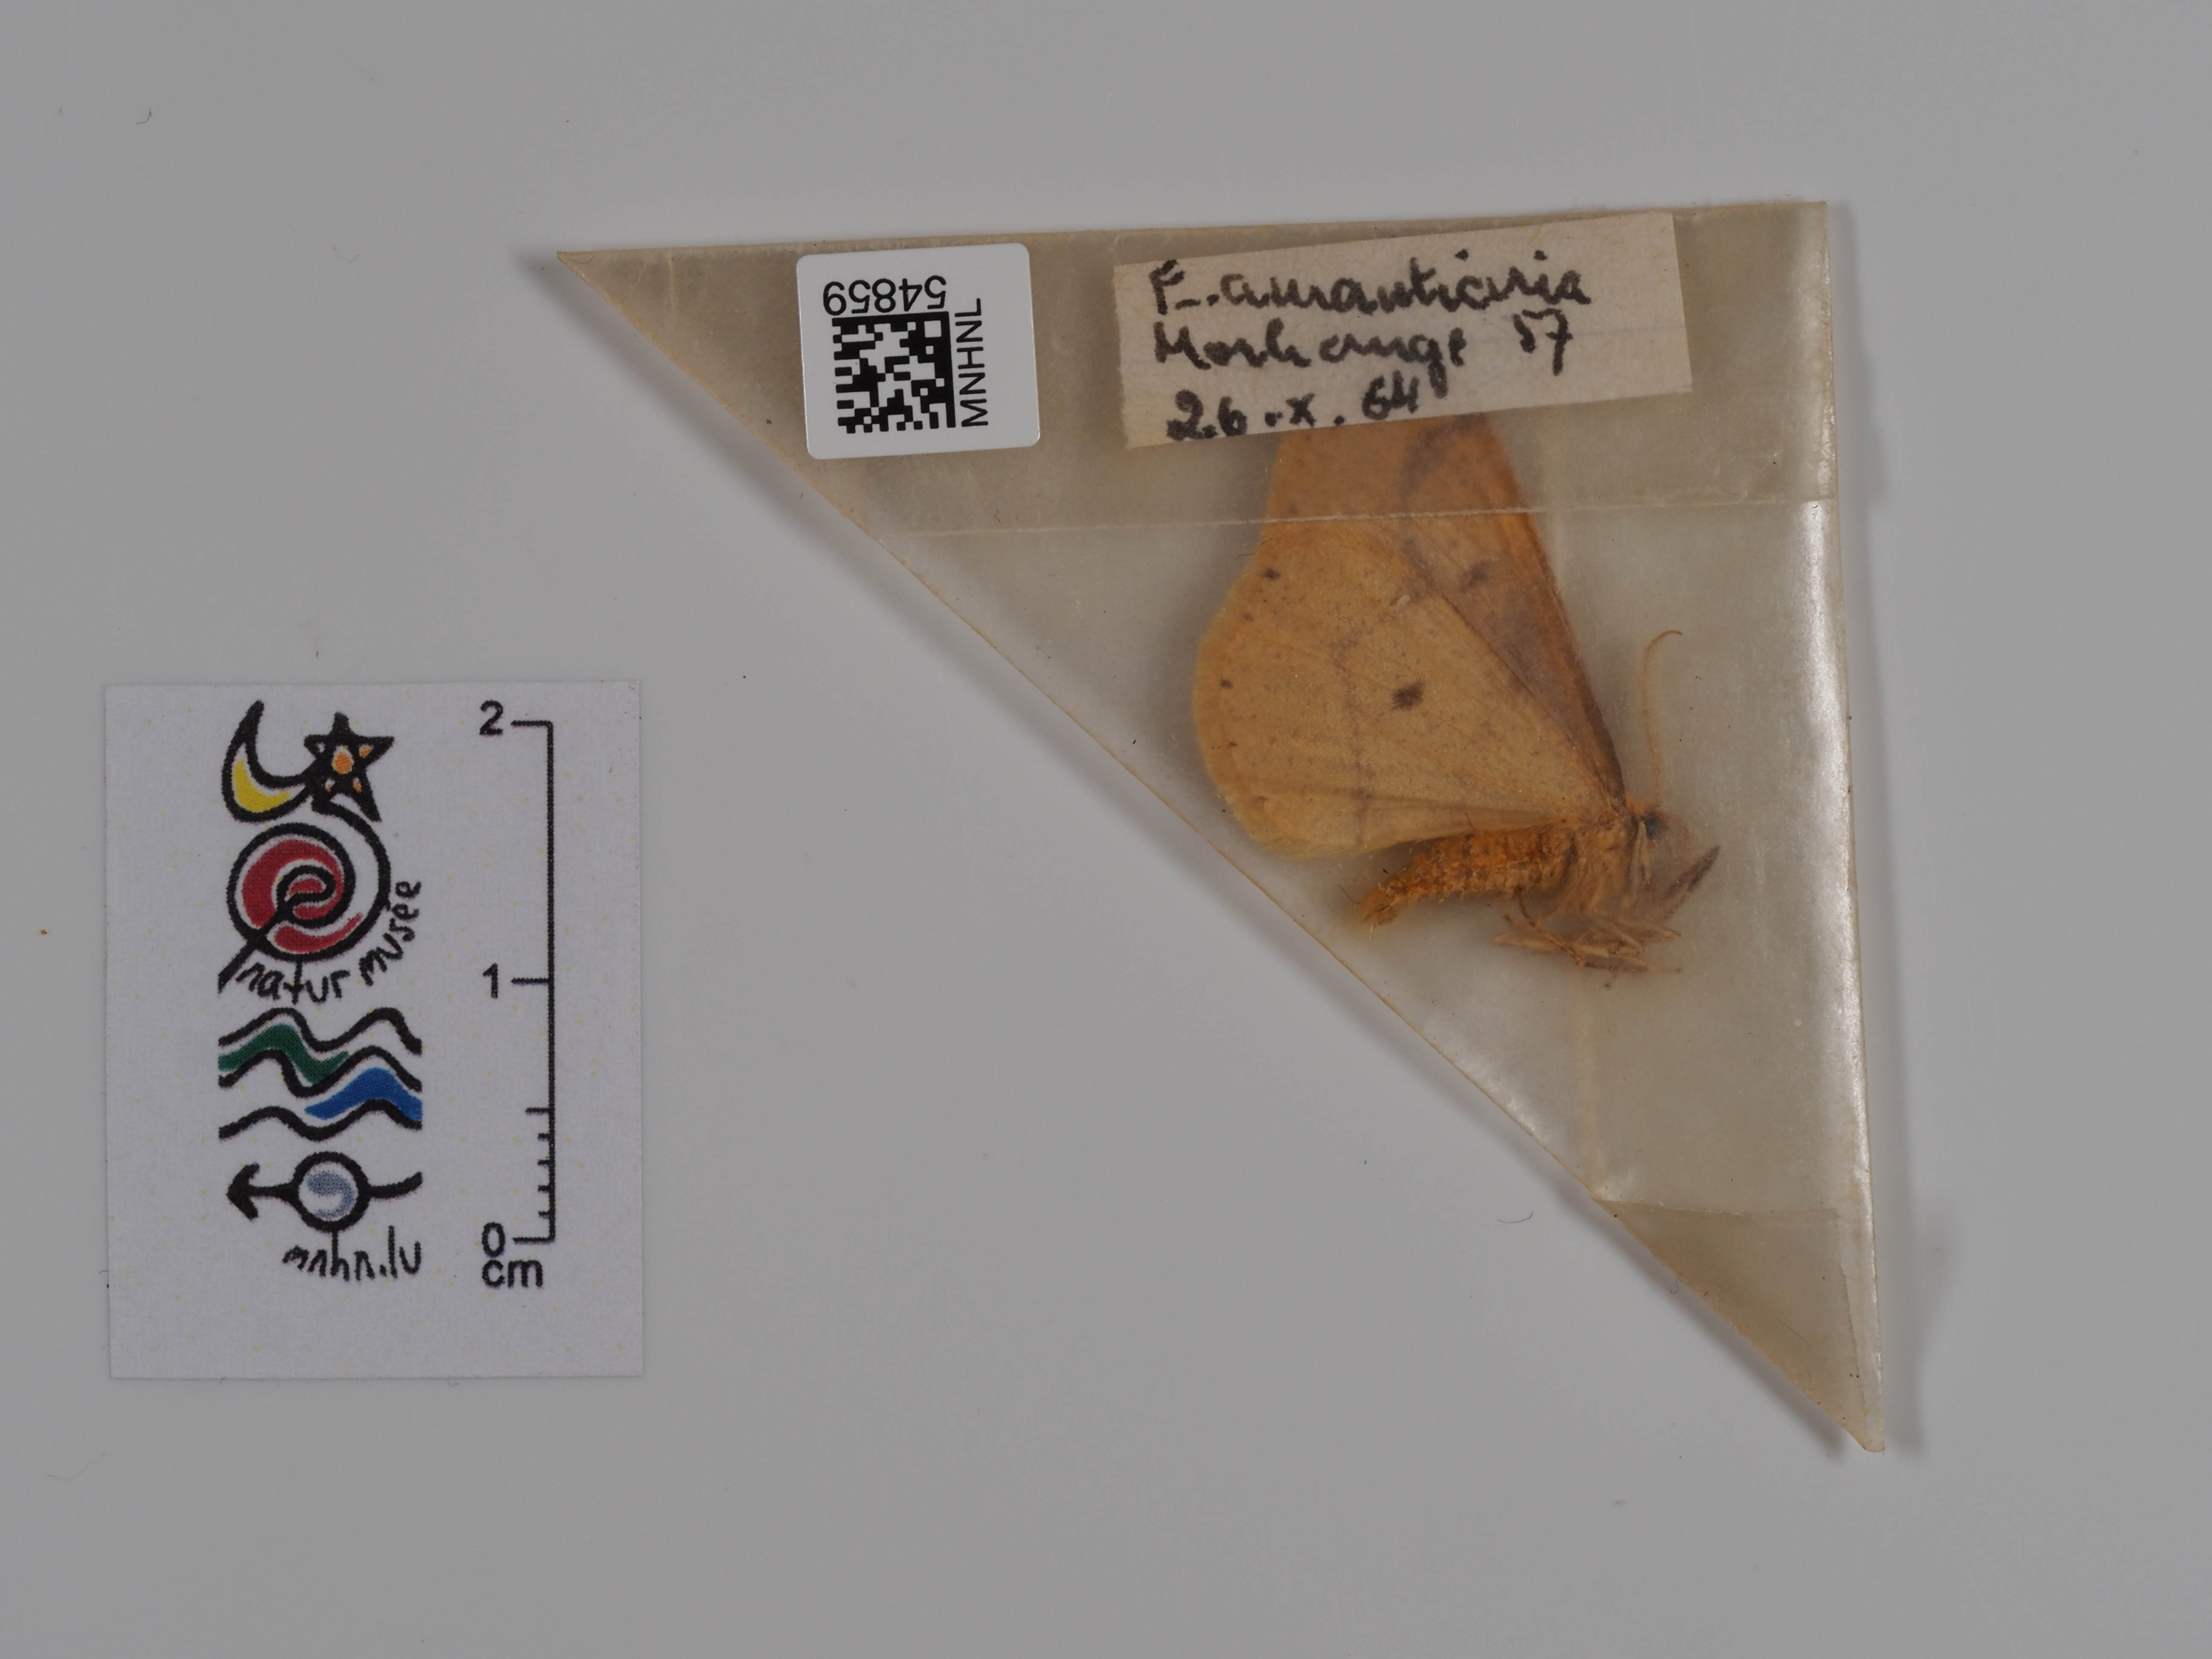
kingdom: Animalia
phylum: Arthropoda
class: Insecta
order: Lepidoptera
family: Geometridae
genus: Erannis
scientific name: Erannis
